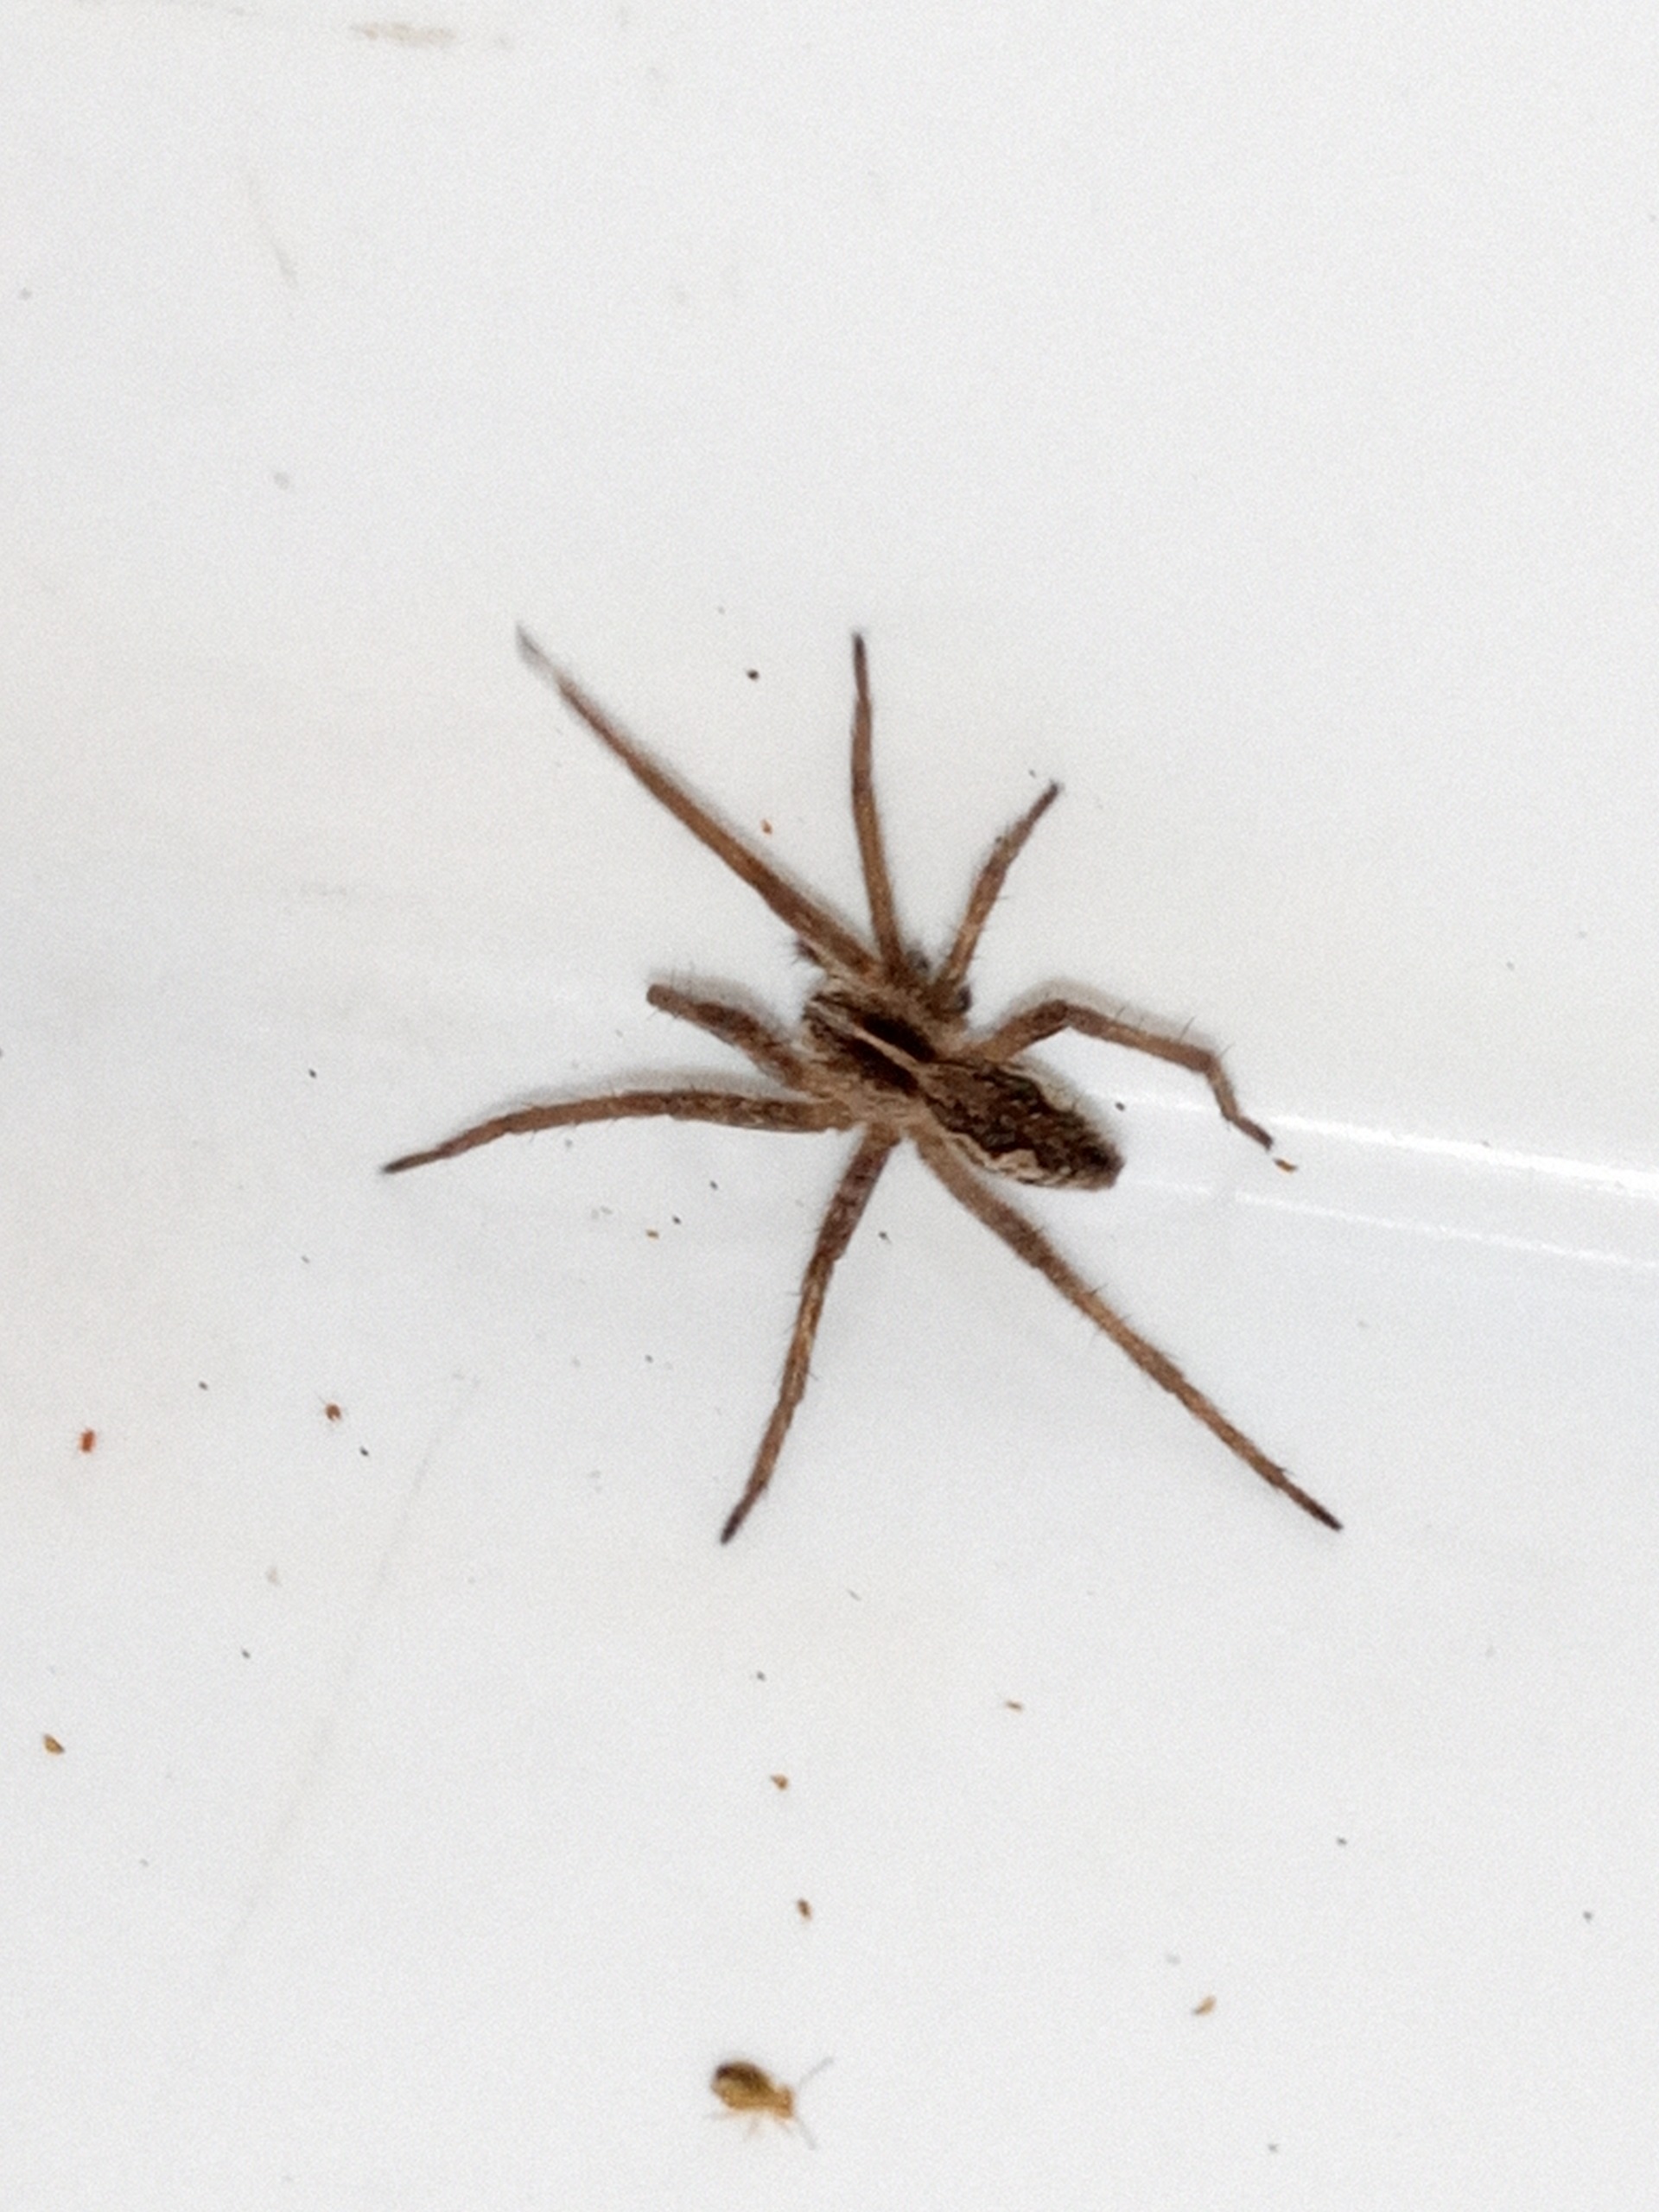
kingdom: Animalia
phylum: Arthropoda
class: Arachnida
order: Araneae
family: Pisauridae
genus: Pisaura
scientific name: Pisaura mirabilis
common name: Almindelig rovedderkop
